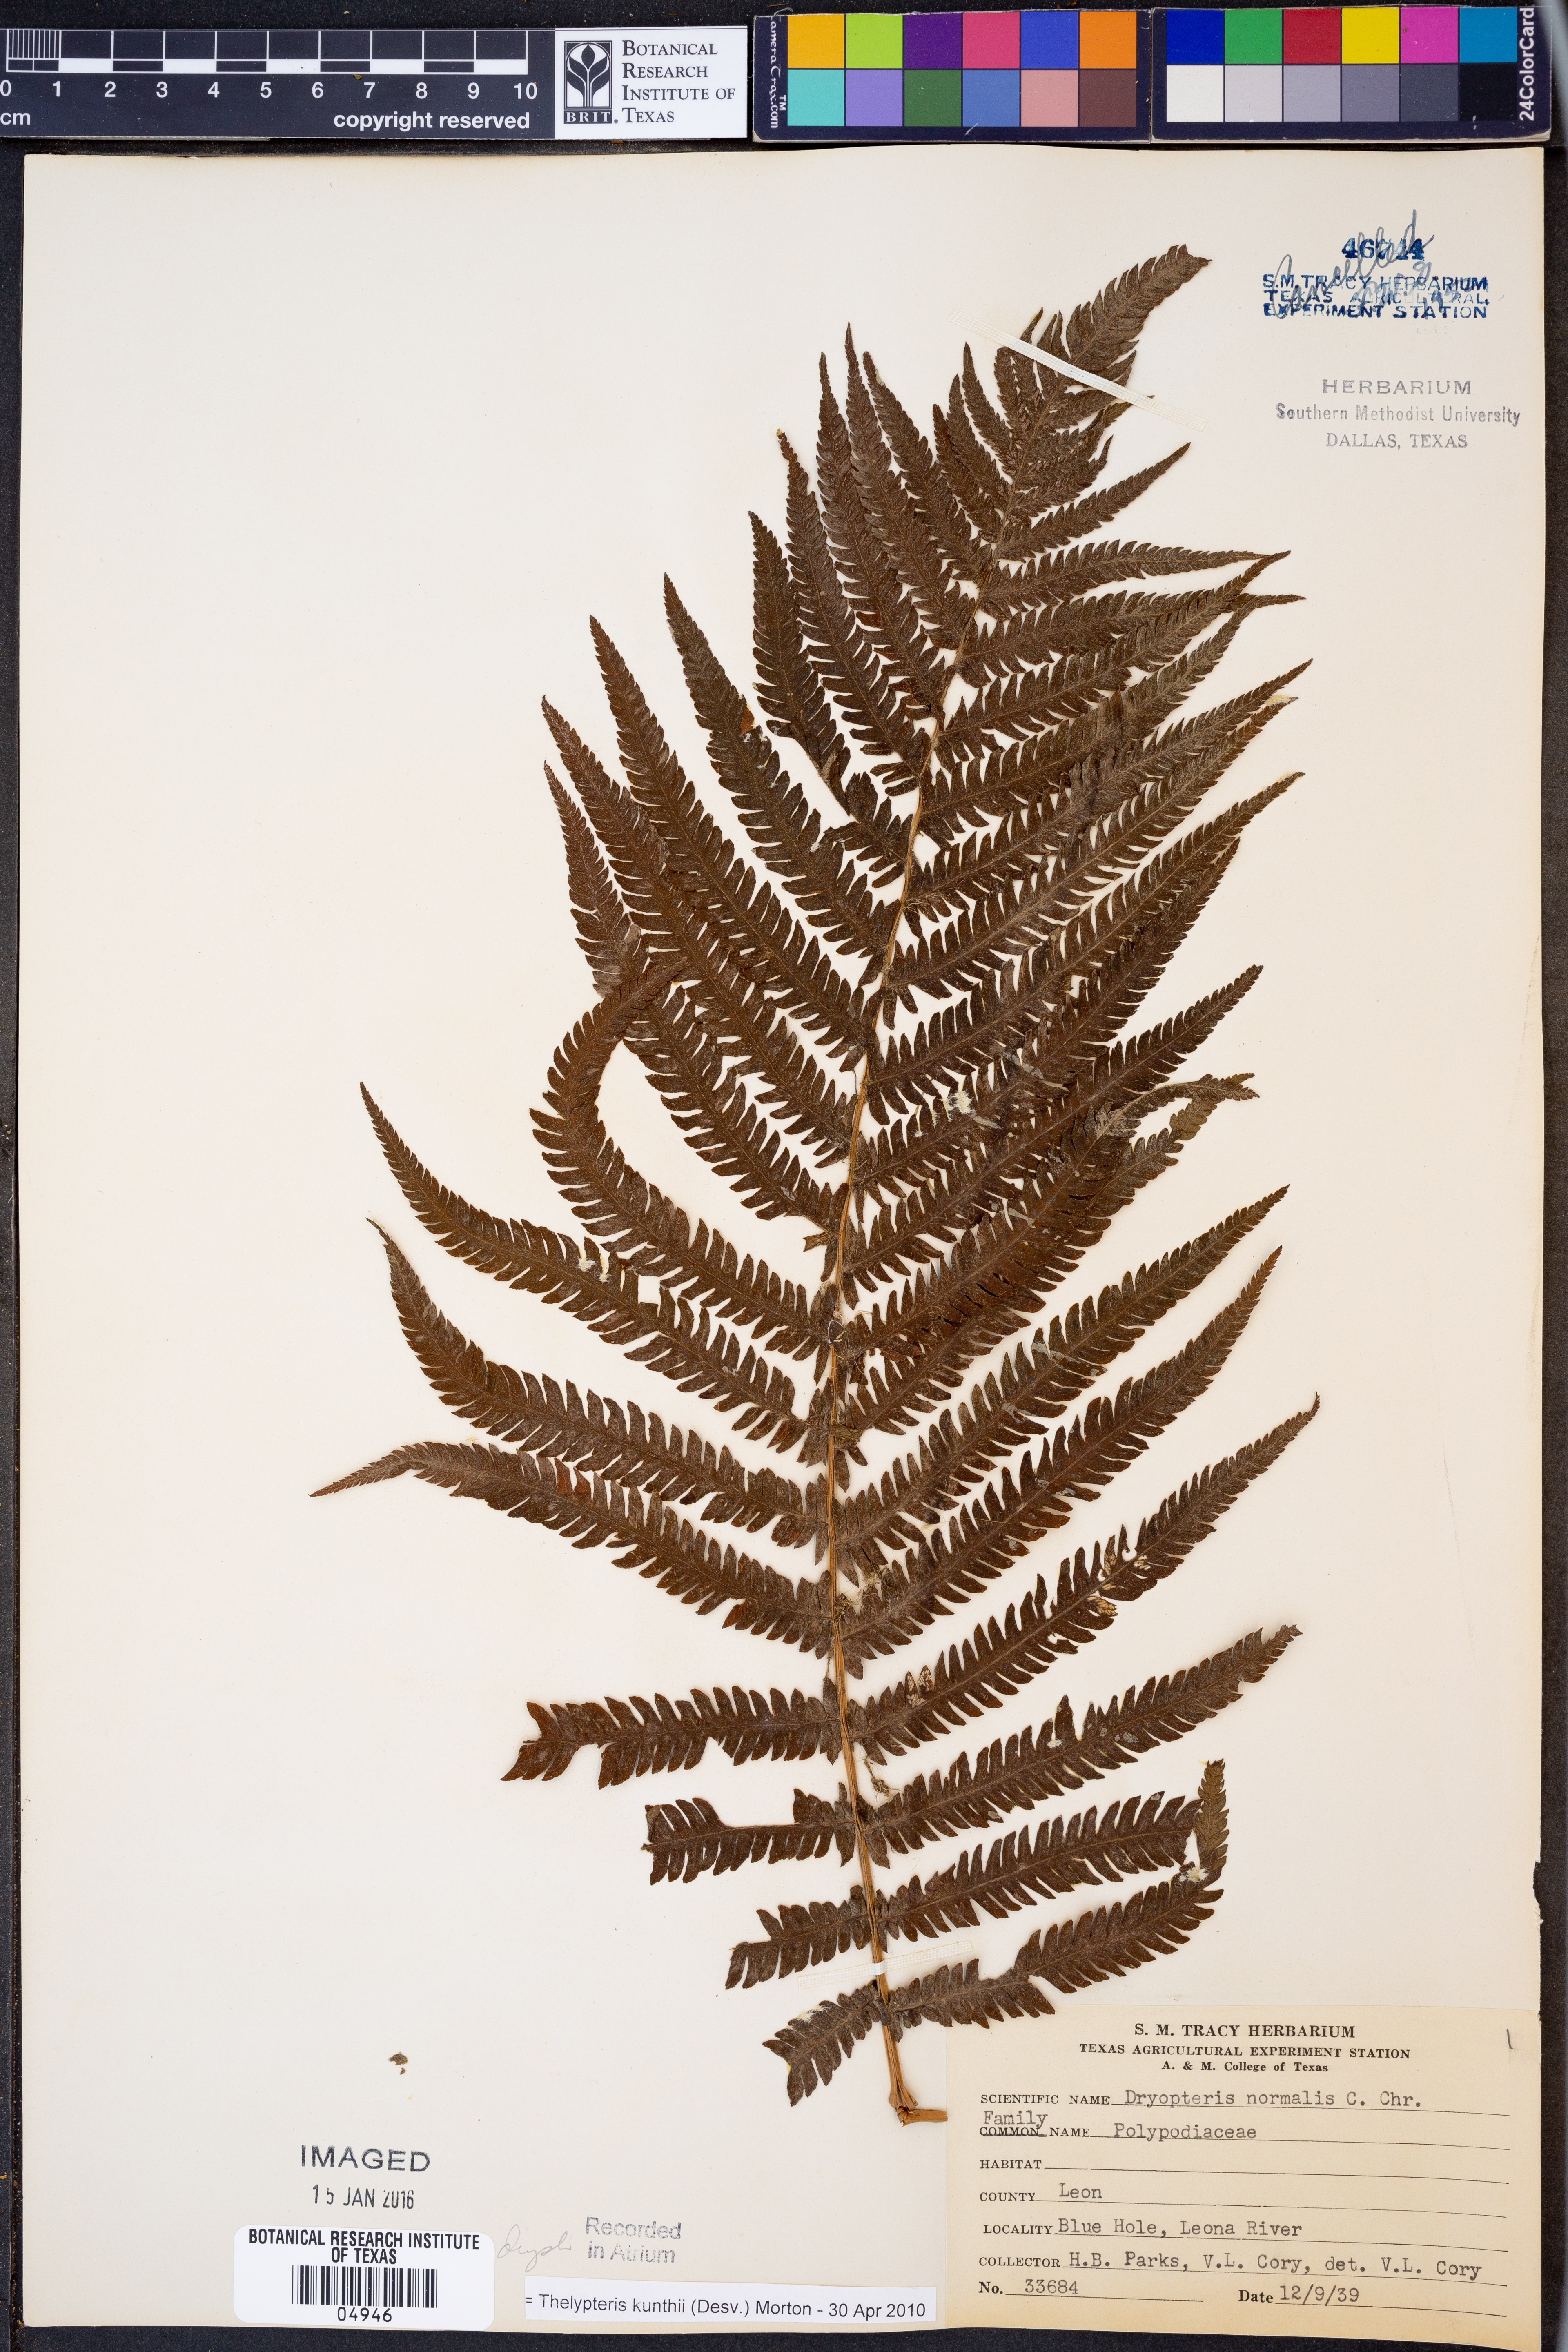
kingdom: Plantae
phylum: Tracheophyta
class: Polypodiopsida
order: Polypodiales
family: Thelypteridaceae
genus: Pelazoneuron
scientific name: Pelazoneuron kunthii
